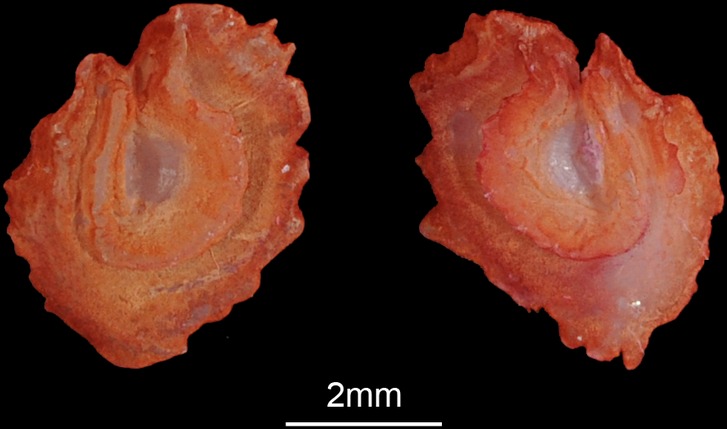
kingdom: Animalia
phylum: Chordata
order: Cypriniformes
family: Cyprinidae
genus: Chondrostoma
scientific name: Chondrostoma nasus
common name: Nase
